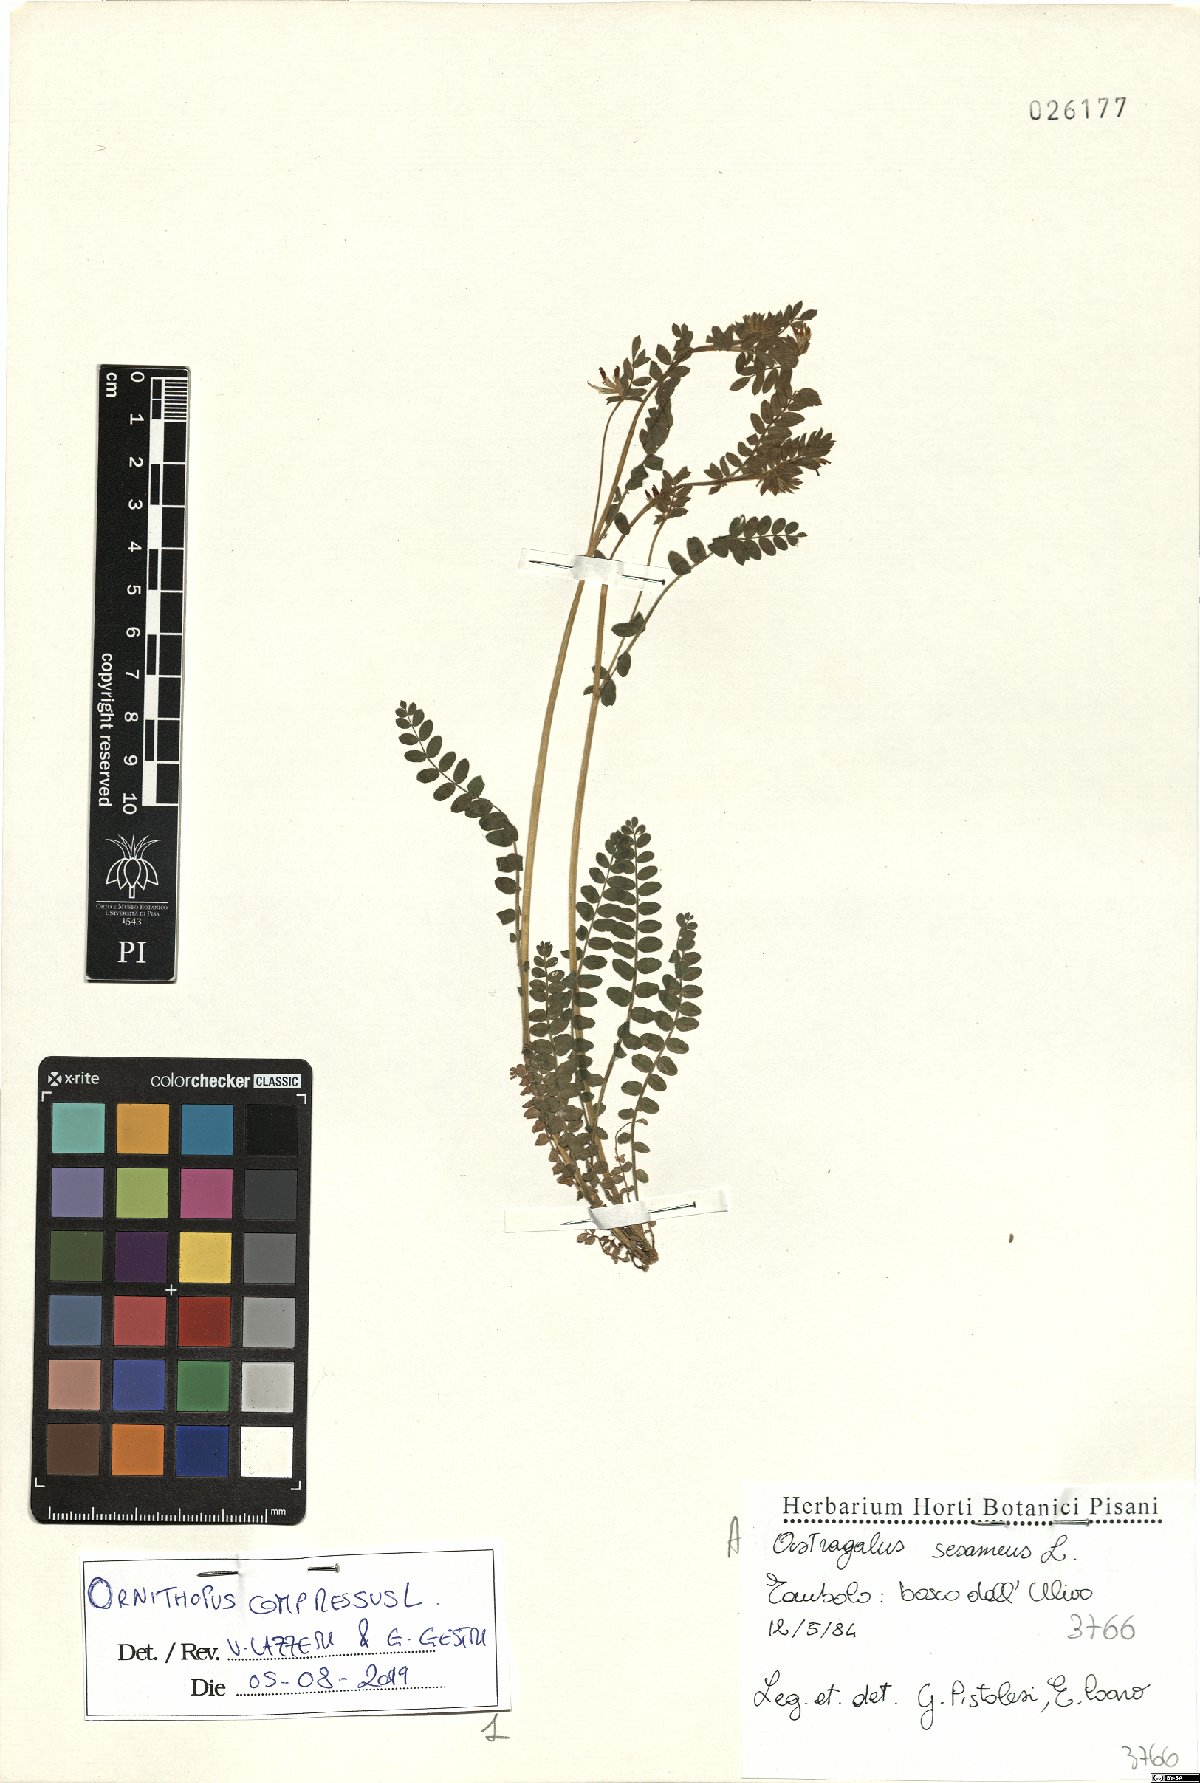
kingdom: Plantae
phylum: Tracheophyta
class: Magnoliopsida
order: Fabales
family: Fabaceae
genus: Ornithopus
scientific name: Ornithopus compressus
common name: Yellow serradella
